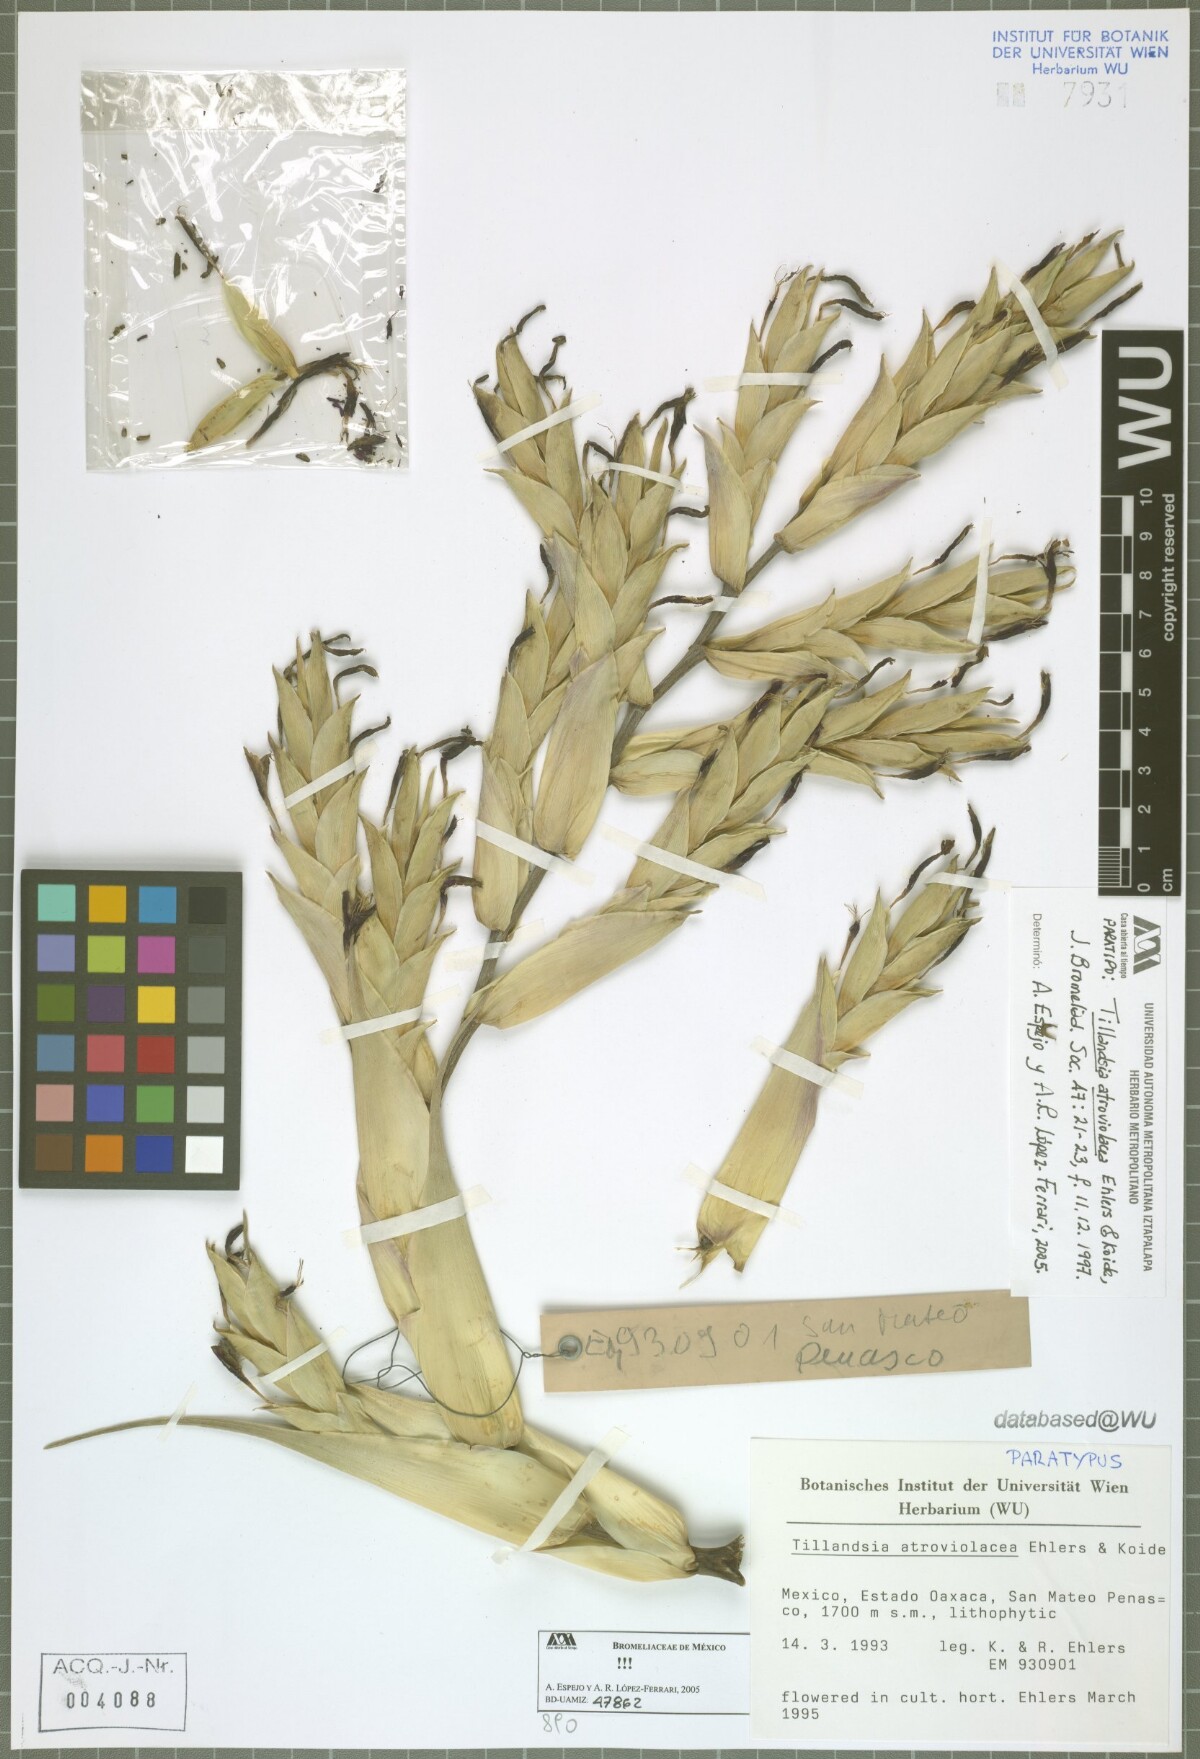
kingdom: Plantae
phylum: Tracheophyta
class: Liliopsida
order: Poales
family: Bromeliaceae
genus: Tillandsia
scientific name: Tillandsia atroviolacea
